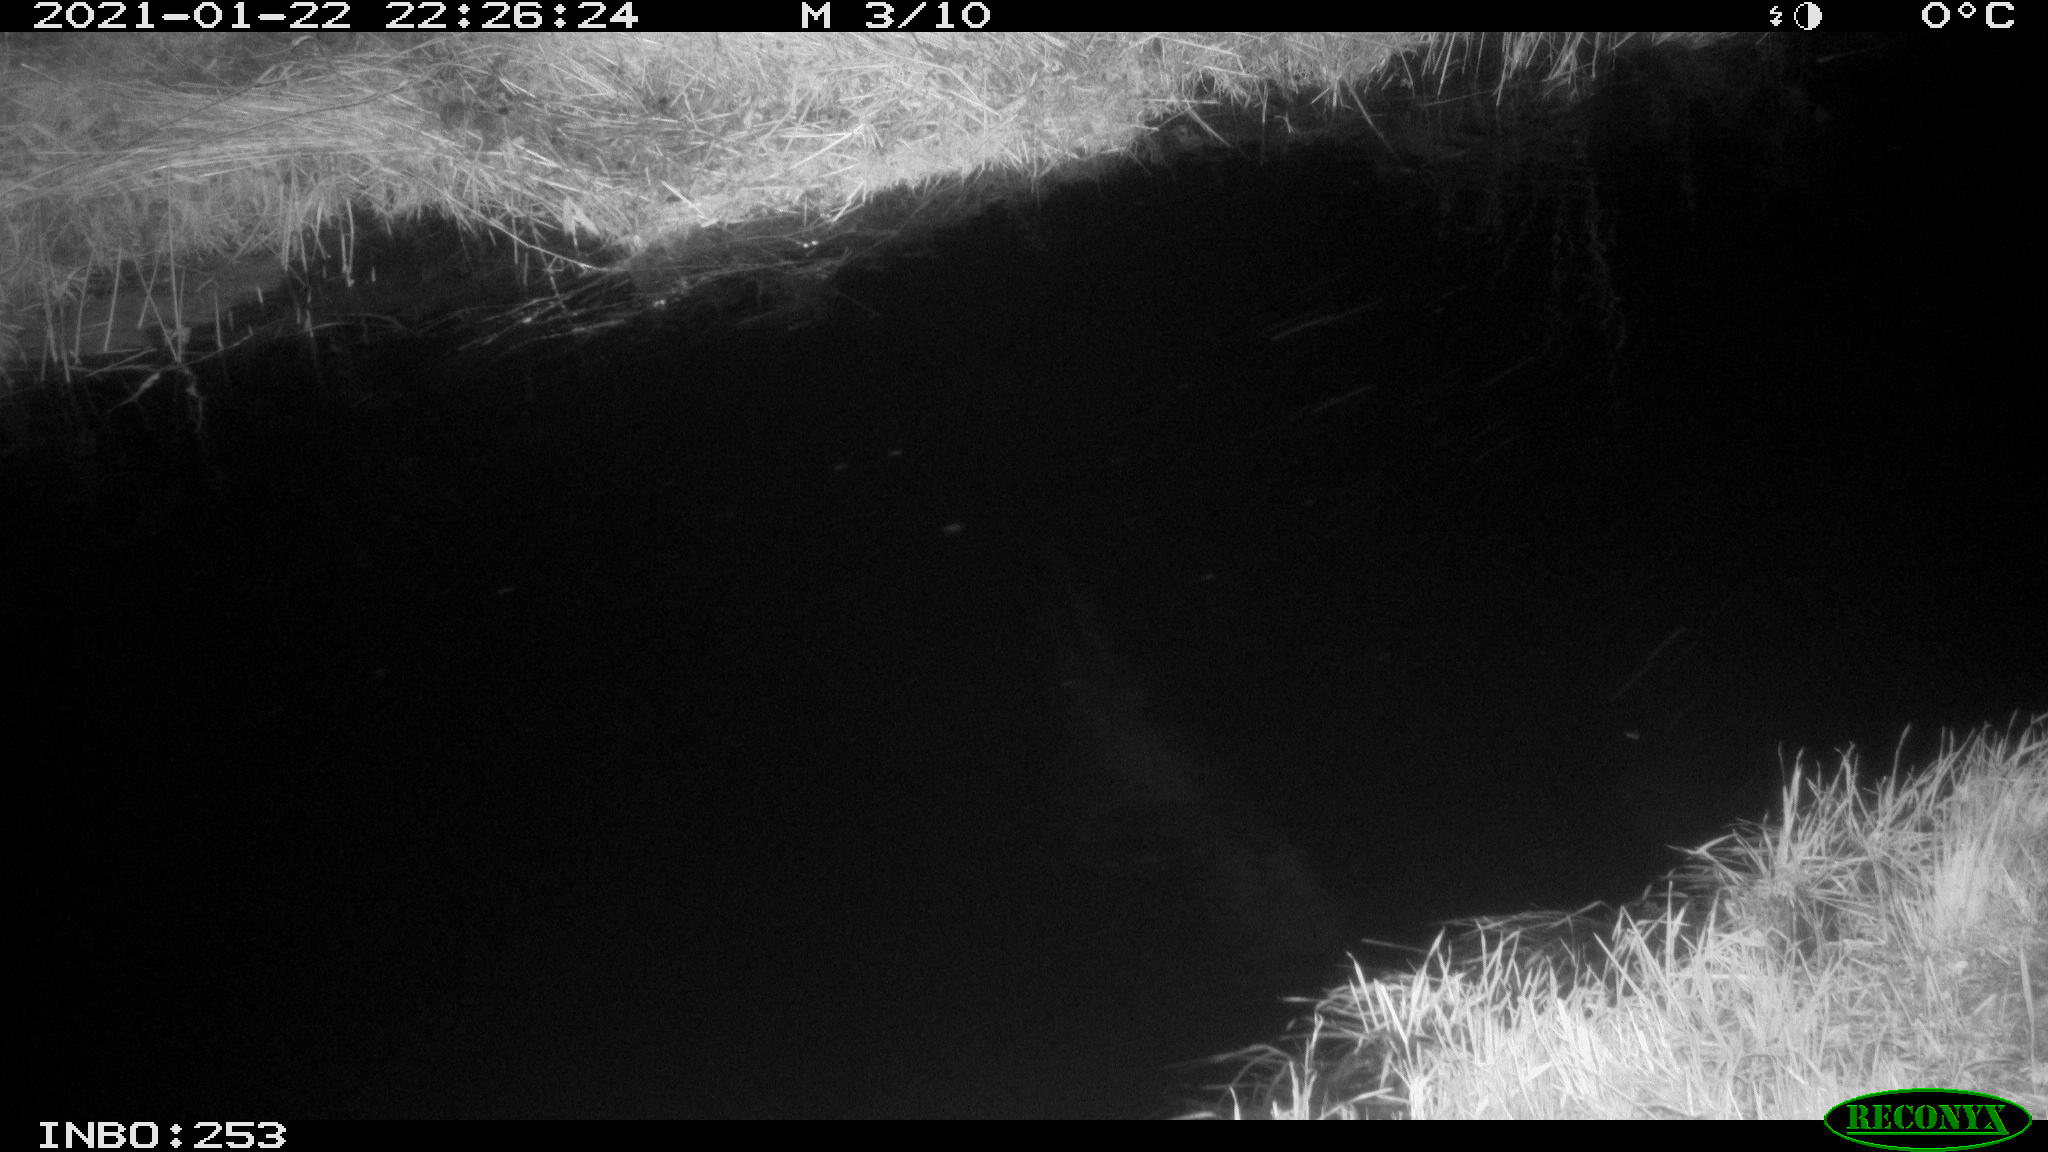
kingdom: Animalia
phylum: Chordata
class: Mammalia
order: Lagomorpha
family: Leporidae
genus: Lepus
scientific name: Lepus europaeus
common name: European hare
